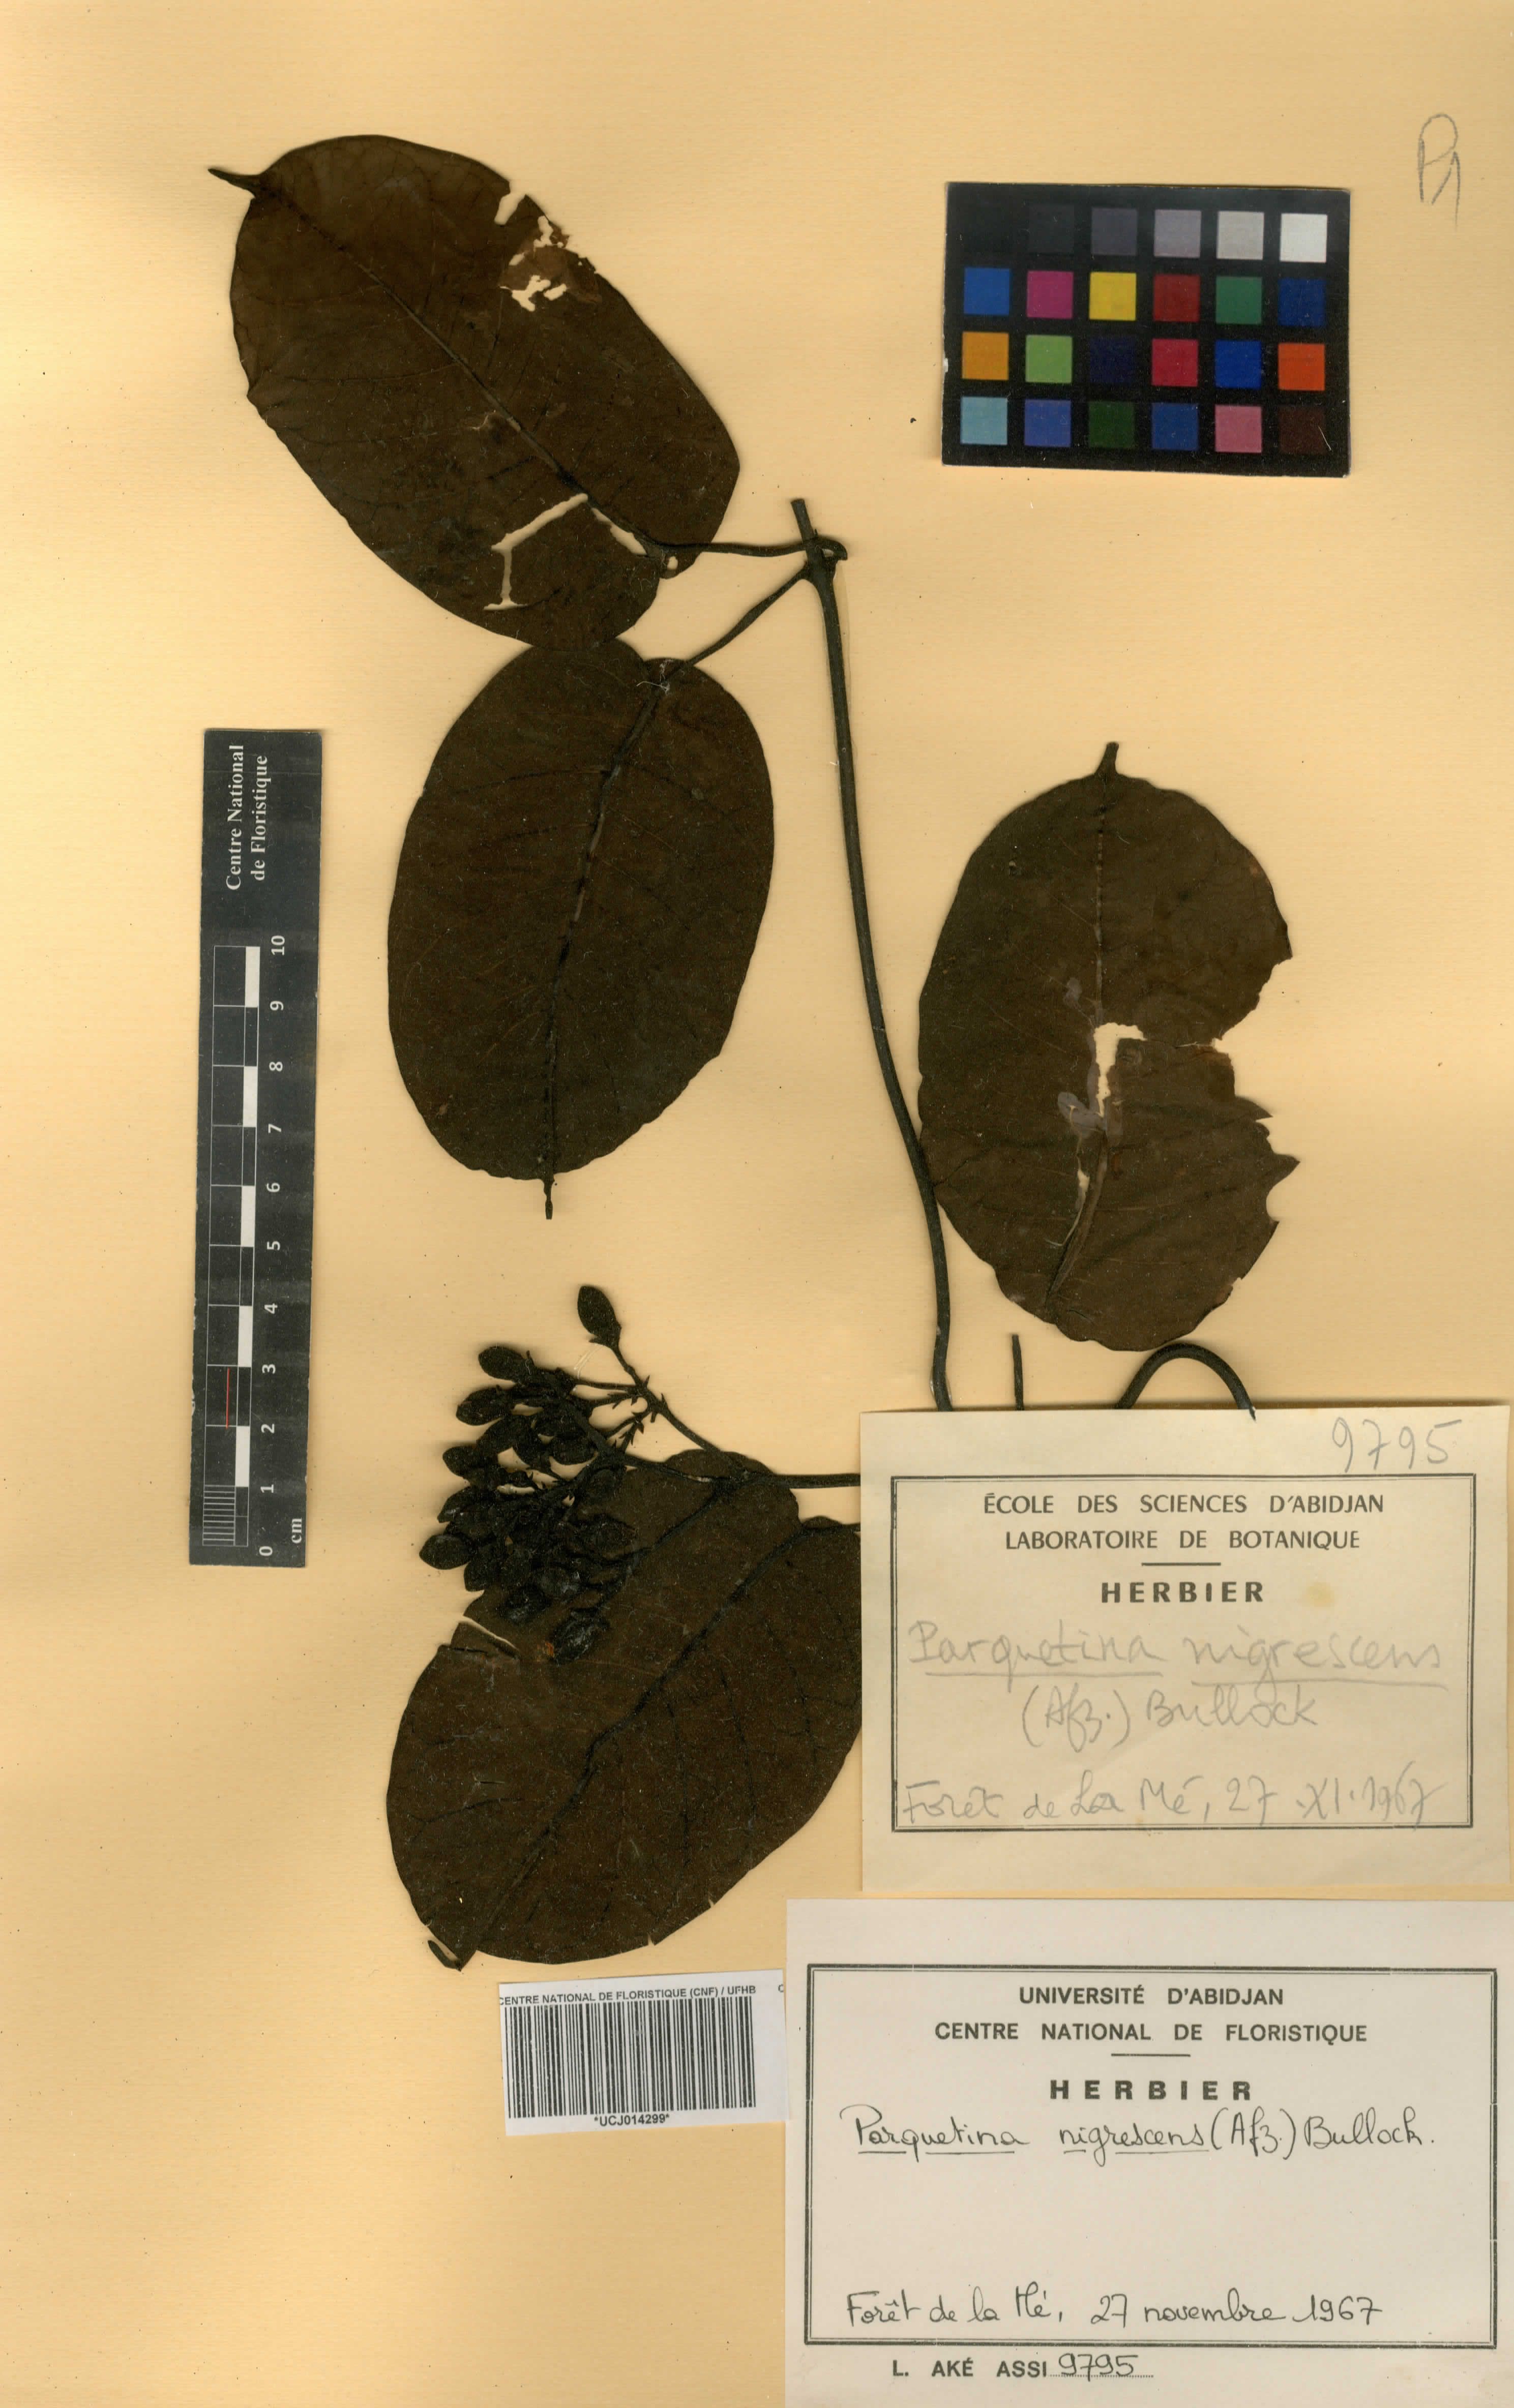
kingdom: Plantae
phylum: Tracheophyta
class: Magnoliopsida
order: Gentianales
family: Apocynaceae
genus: Cryptolepis
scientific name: Cryptolepis nigrescens
